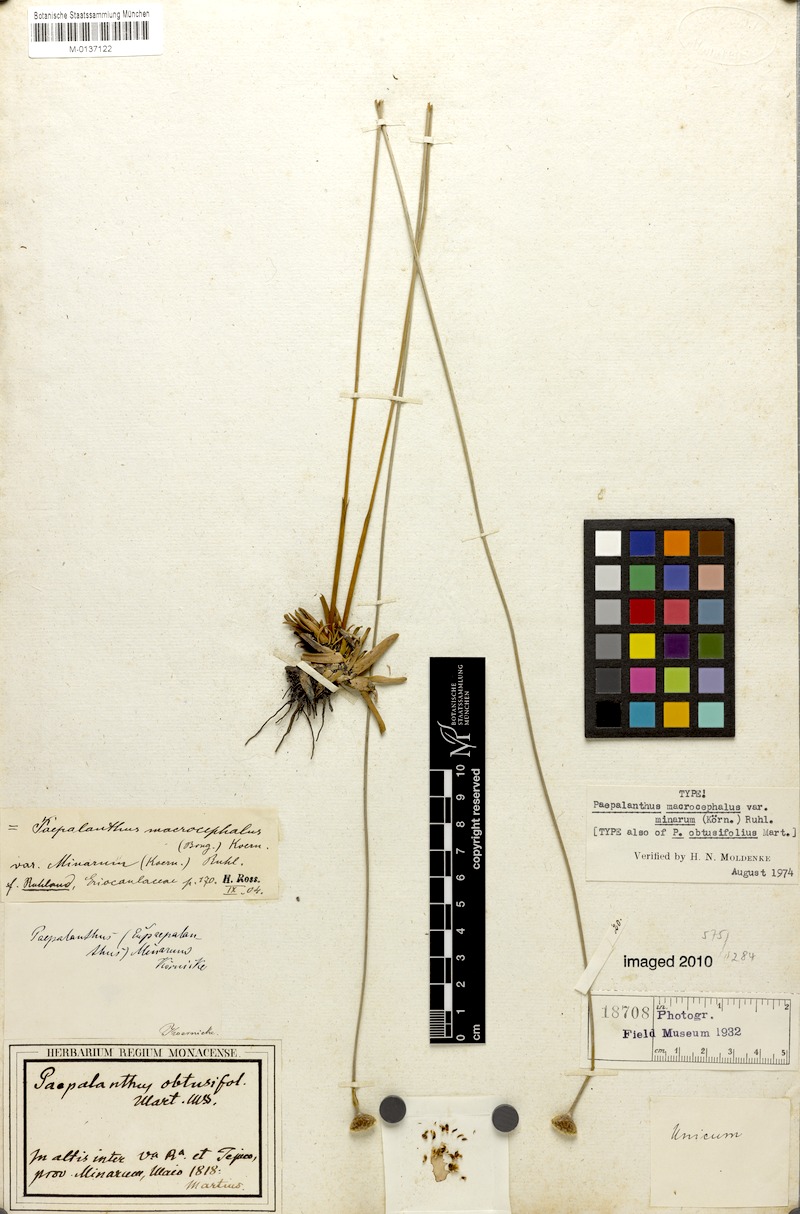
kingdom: Plantae
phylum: Tracheophyta
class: Liliopsida
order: Poales
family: Eriocaulaceae
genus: Paepalanthus
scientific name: Paepalanthus macrocephalus
